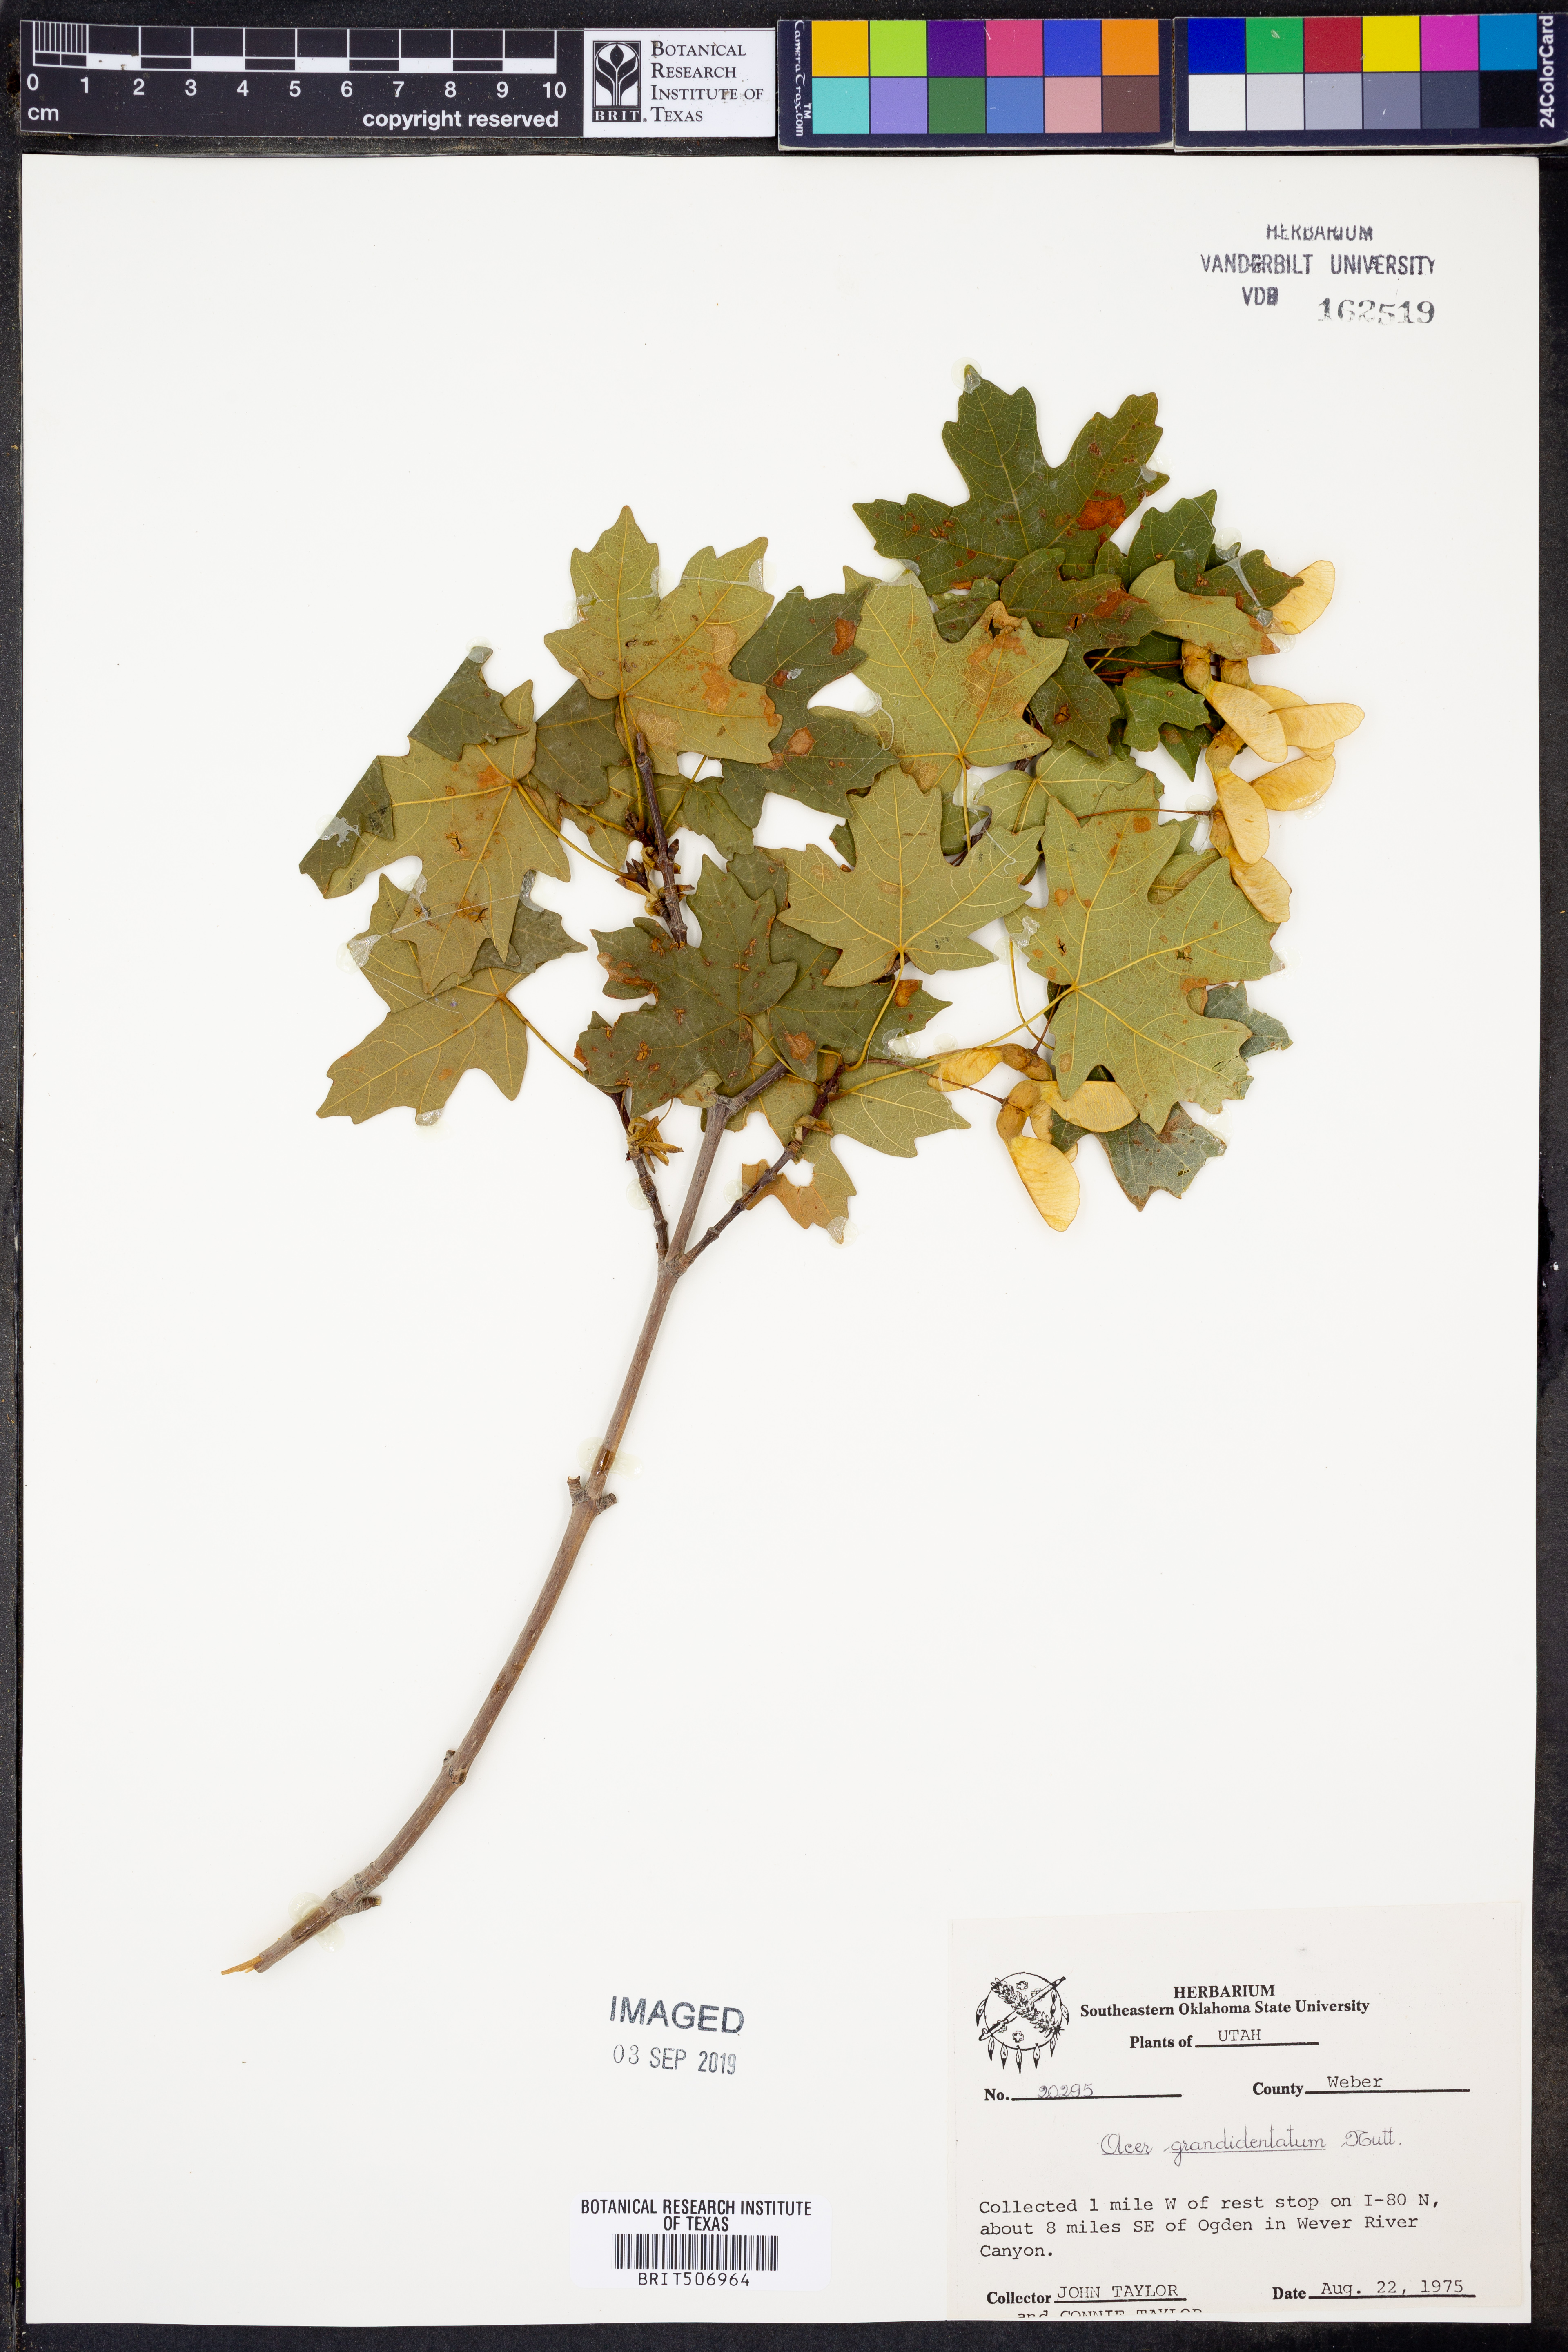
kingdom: Plantae
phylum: Tracheophyta
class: Magnoliopsida
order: Sapindales
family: Sapindaceae
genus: Acer
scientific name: Acer grandidentatum
